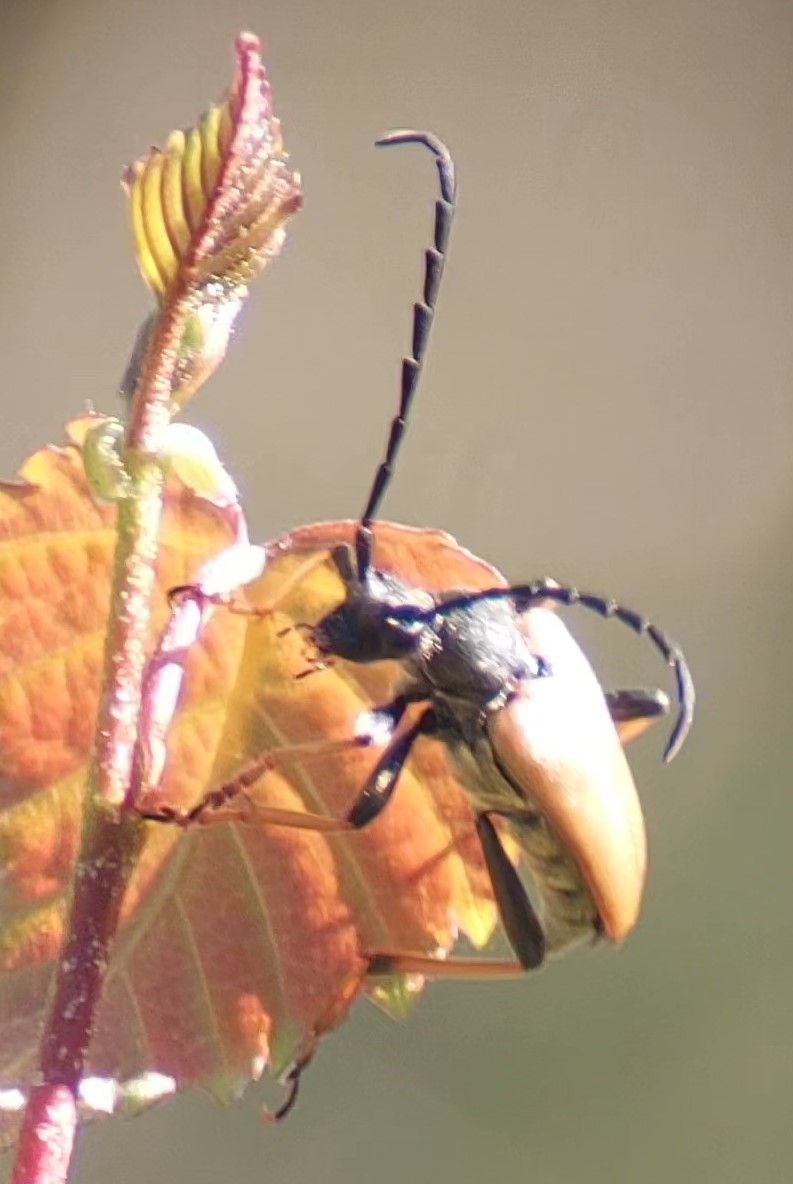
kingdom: Animalia
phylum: Arthropoda
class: Insecta
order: Coleoptera
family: Cerambycidae
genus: Stictoleptura
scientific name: Stictoleptura rubra
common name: Rød blomsterbuk
